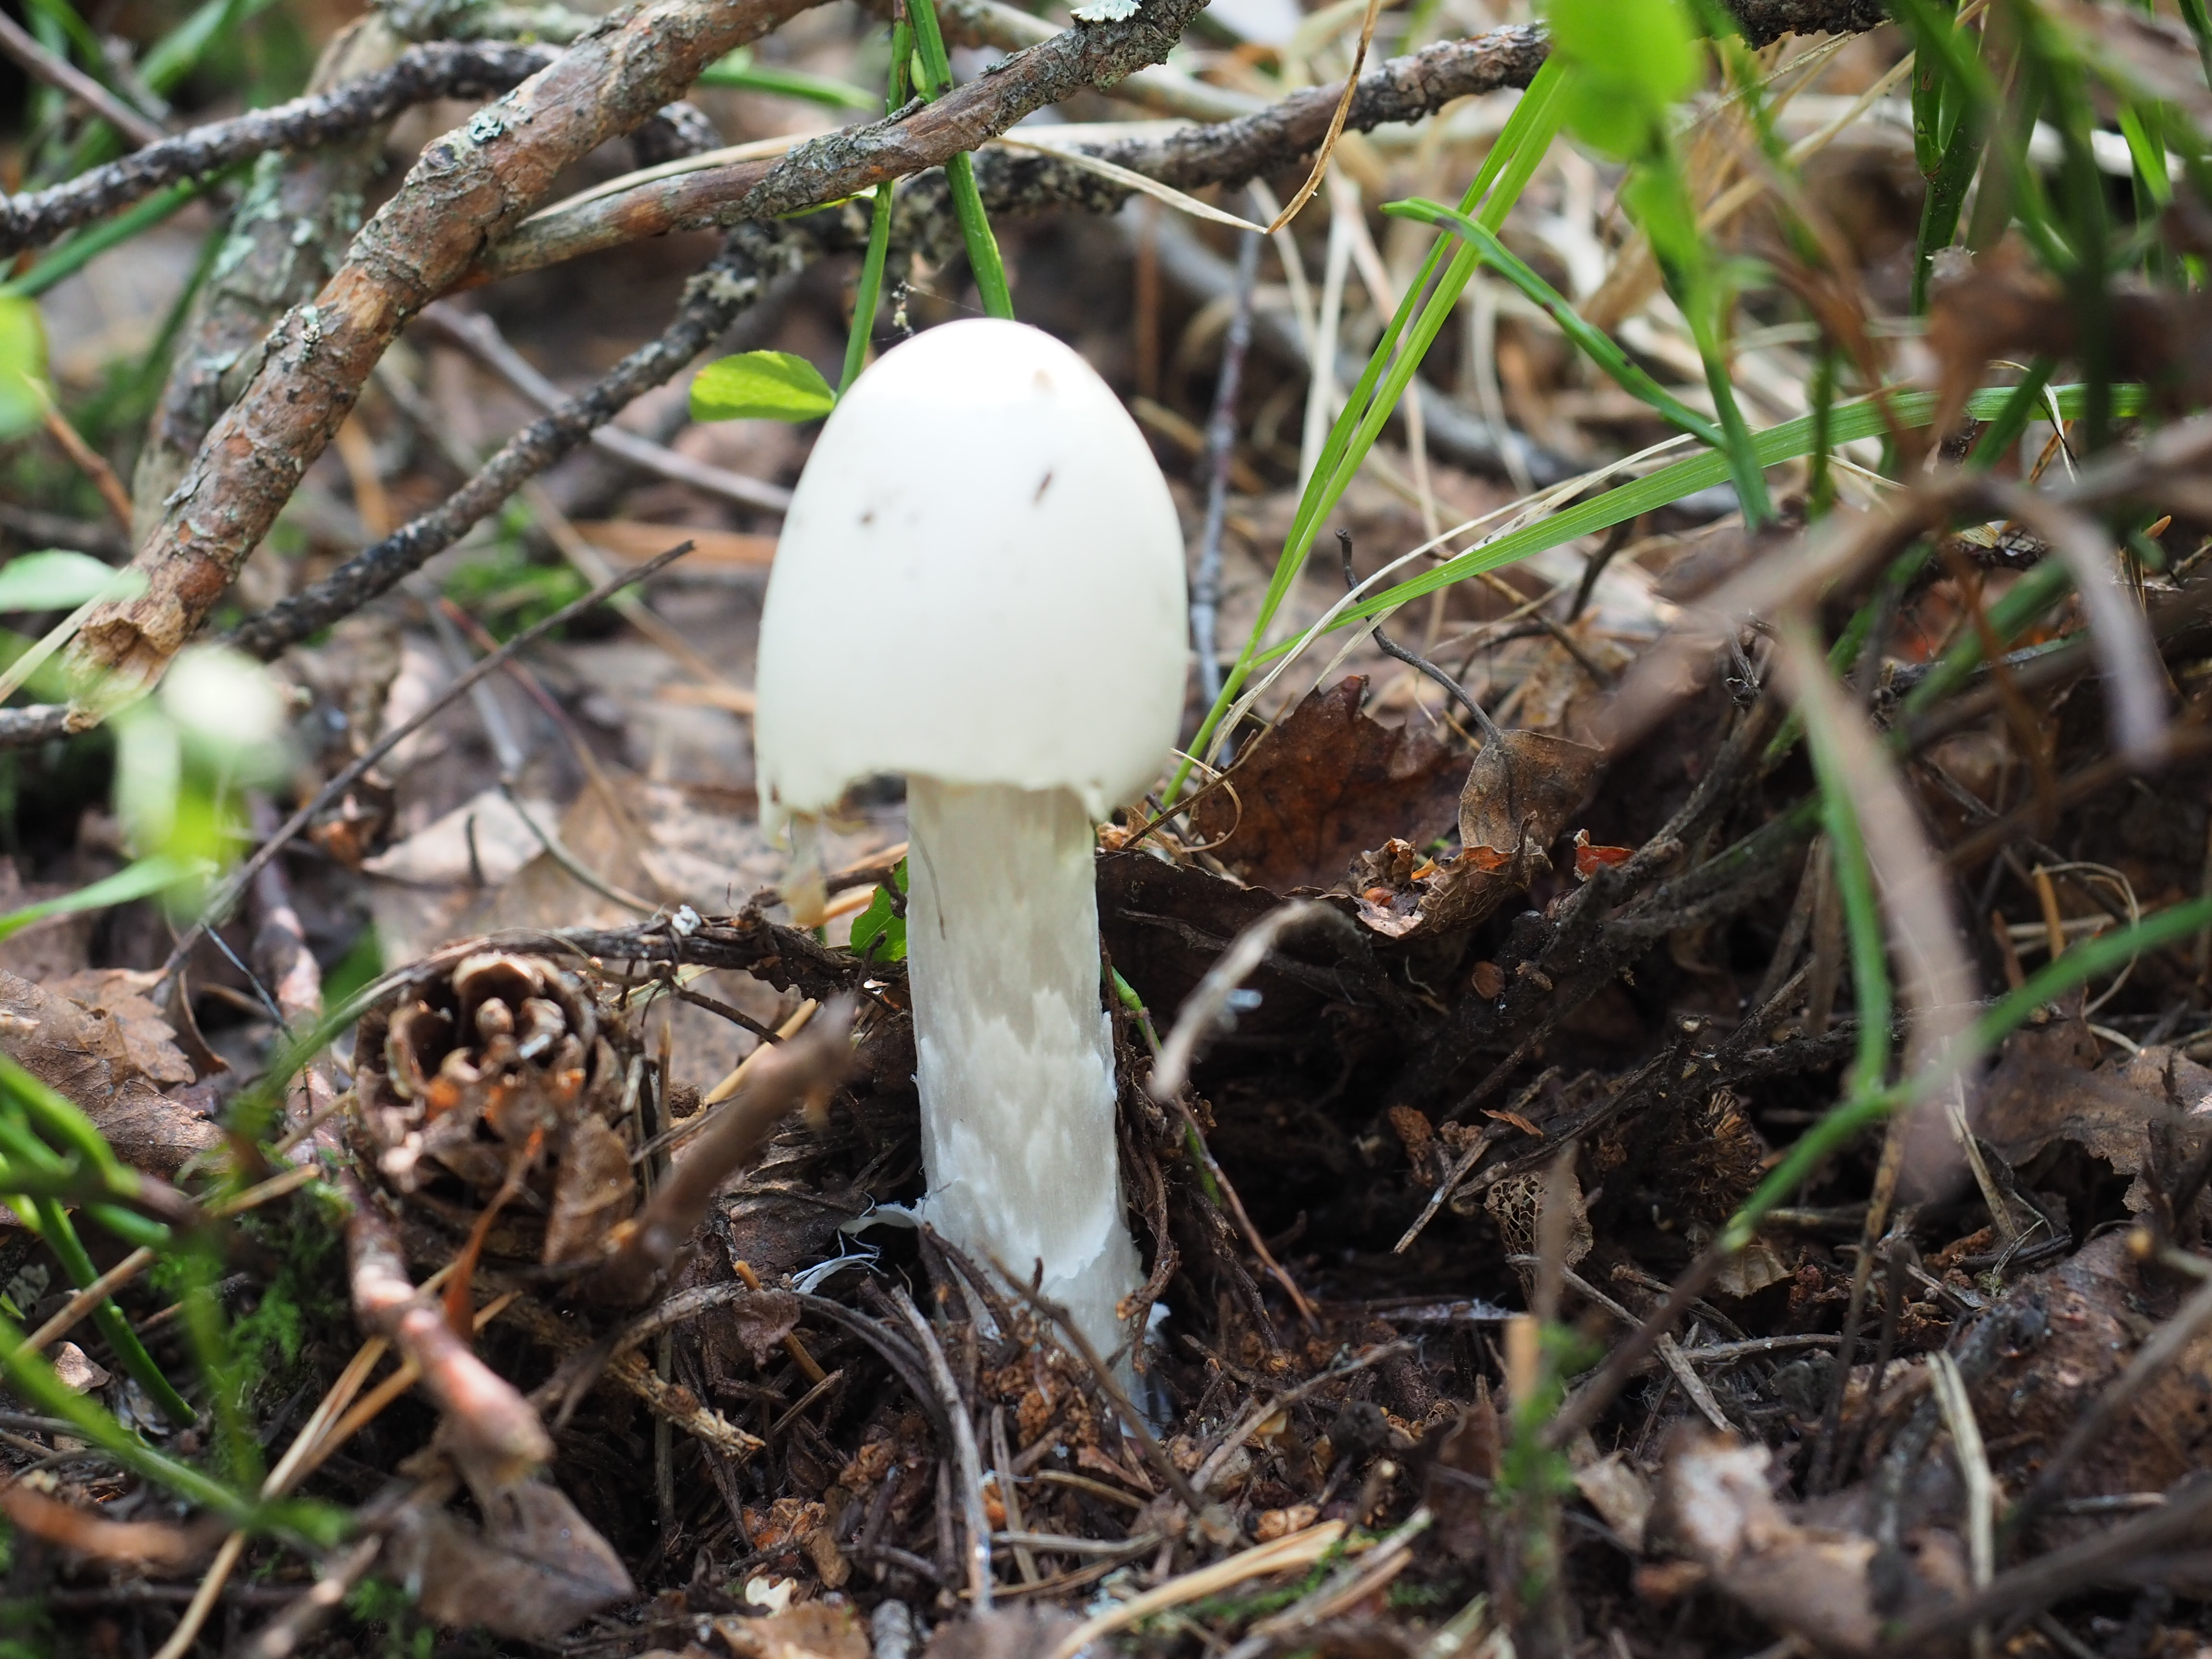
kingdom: Fungi
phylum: Basidiomycota
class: Agaricomycetes
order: Agaricales
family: Amanitaceae
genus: Amanita
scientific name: Amanita virosa
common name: Destroying angel
